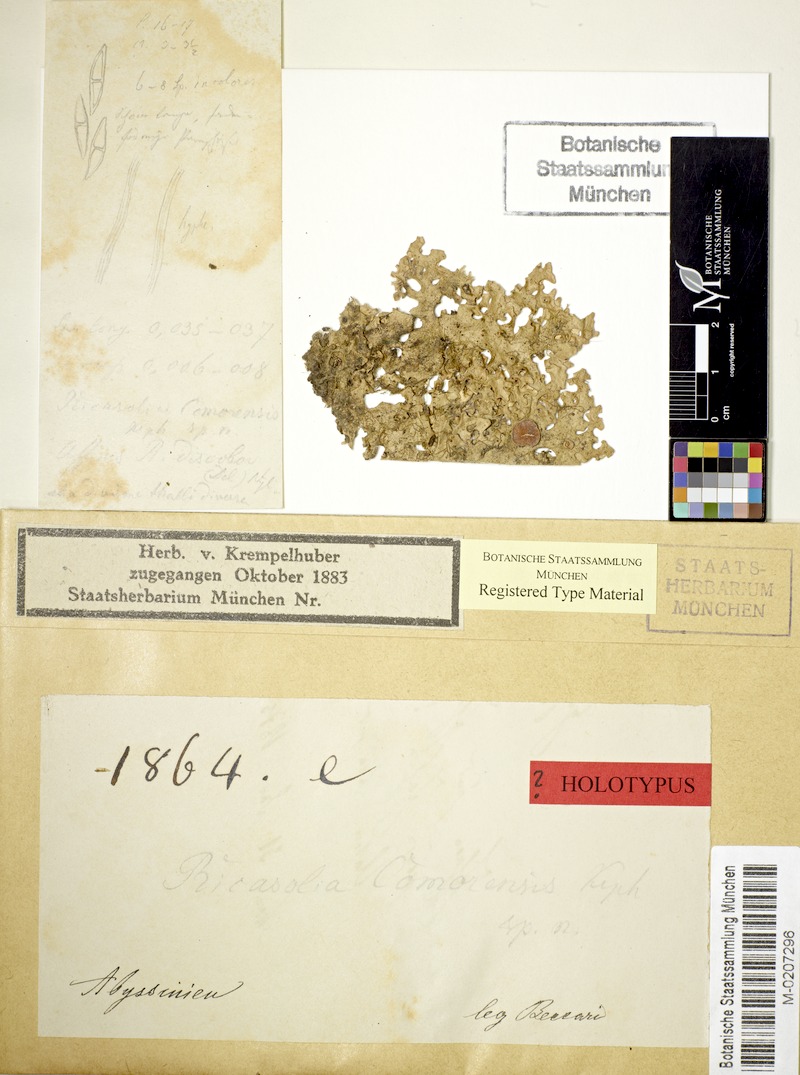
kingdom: Fungi
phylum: Ascomycota
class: Lecanoromycetes
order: Peltigerales
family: Lobariaceae
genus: Lobaria
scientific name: Lobaria
